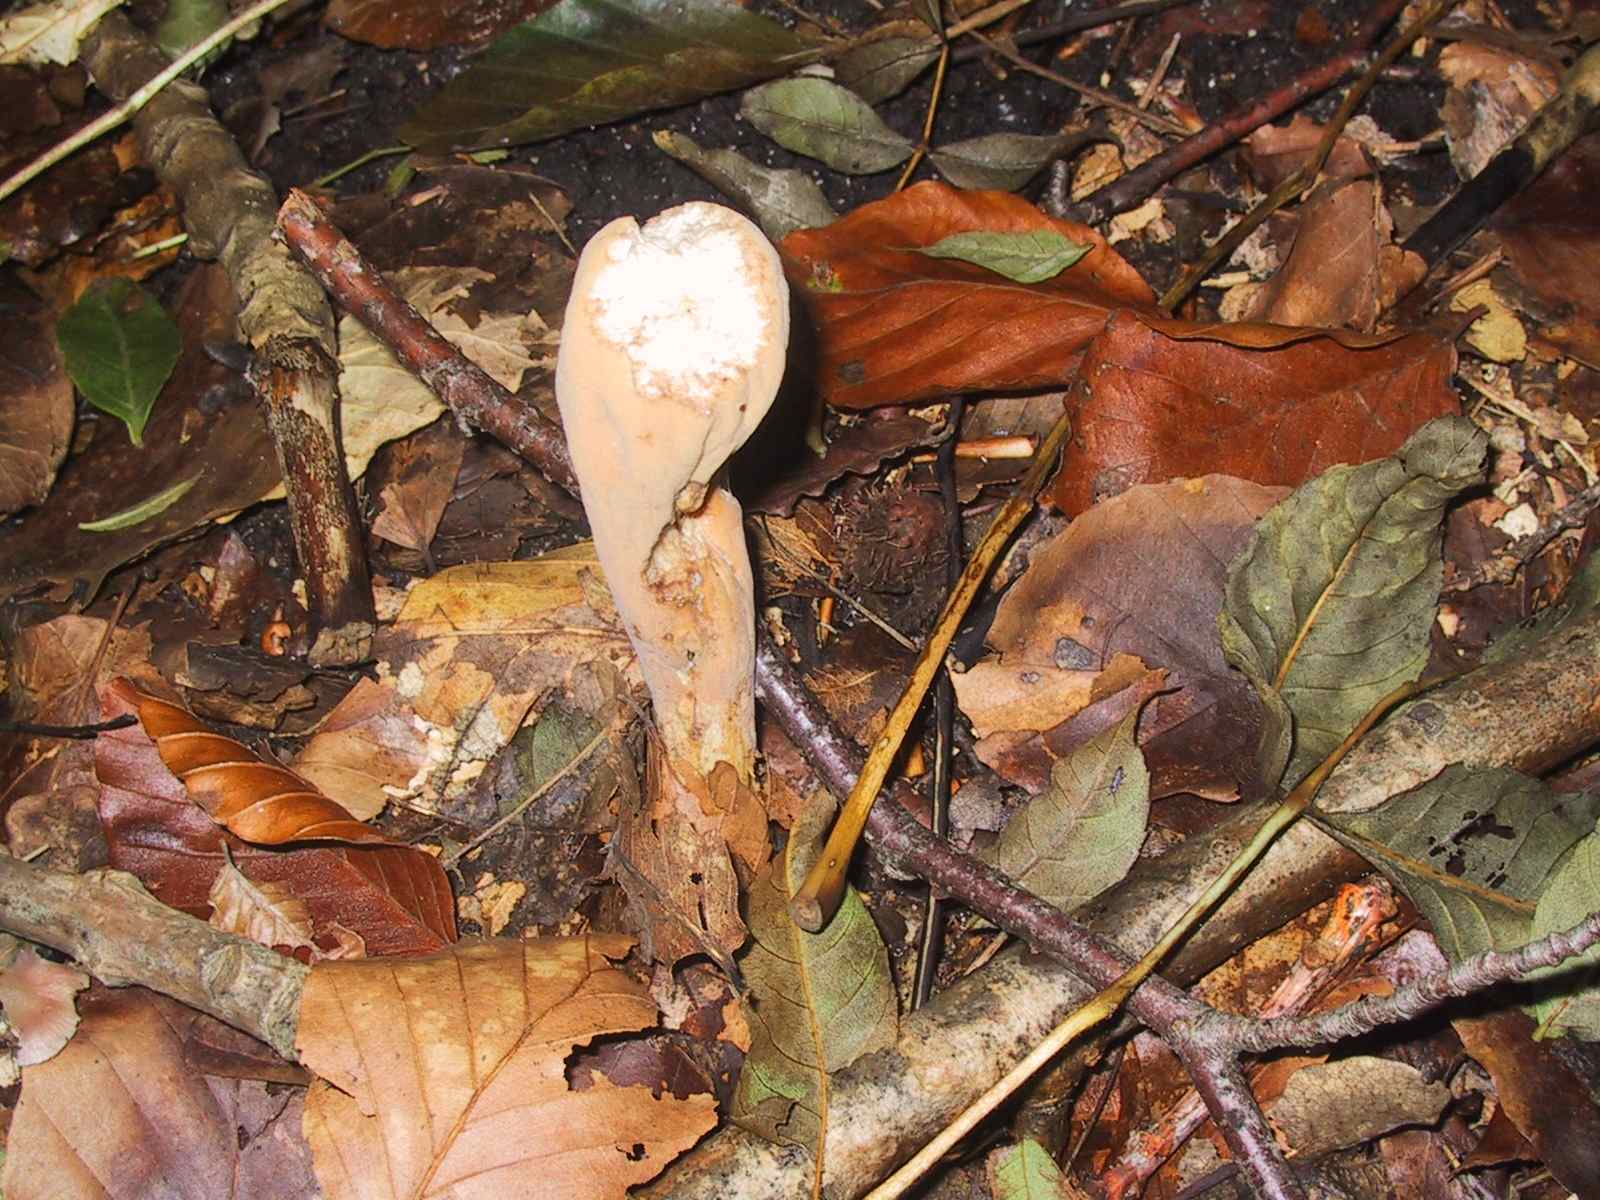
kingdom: Fungi
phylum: Basidiomycota
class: Agaricomycetes
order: Gomphales
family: Clavariadelphaceae
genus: Clavariadelphus
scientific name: Clavariadelphus pistillaris
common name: herkules-kæmpekølle
